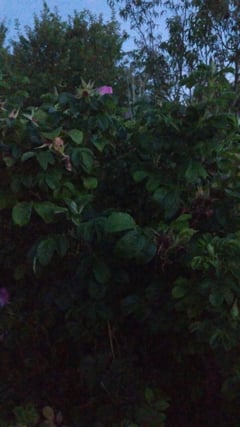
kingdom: Animalia
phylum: Arthropoda
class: Insecta
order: Orthoptera
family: Gryllidae
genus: Gryllus
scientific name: Gryllus
